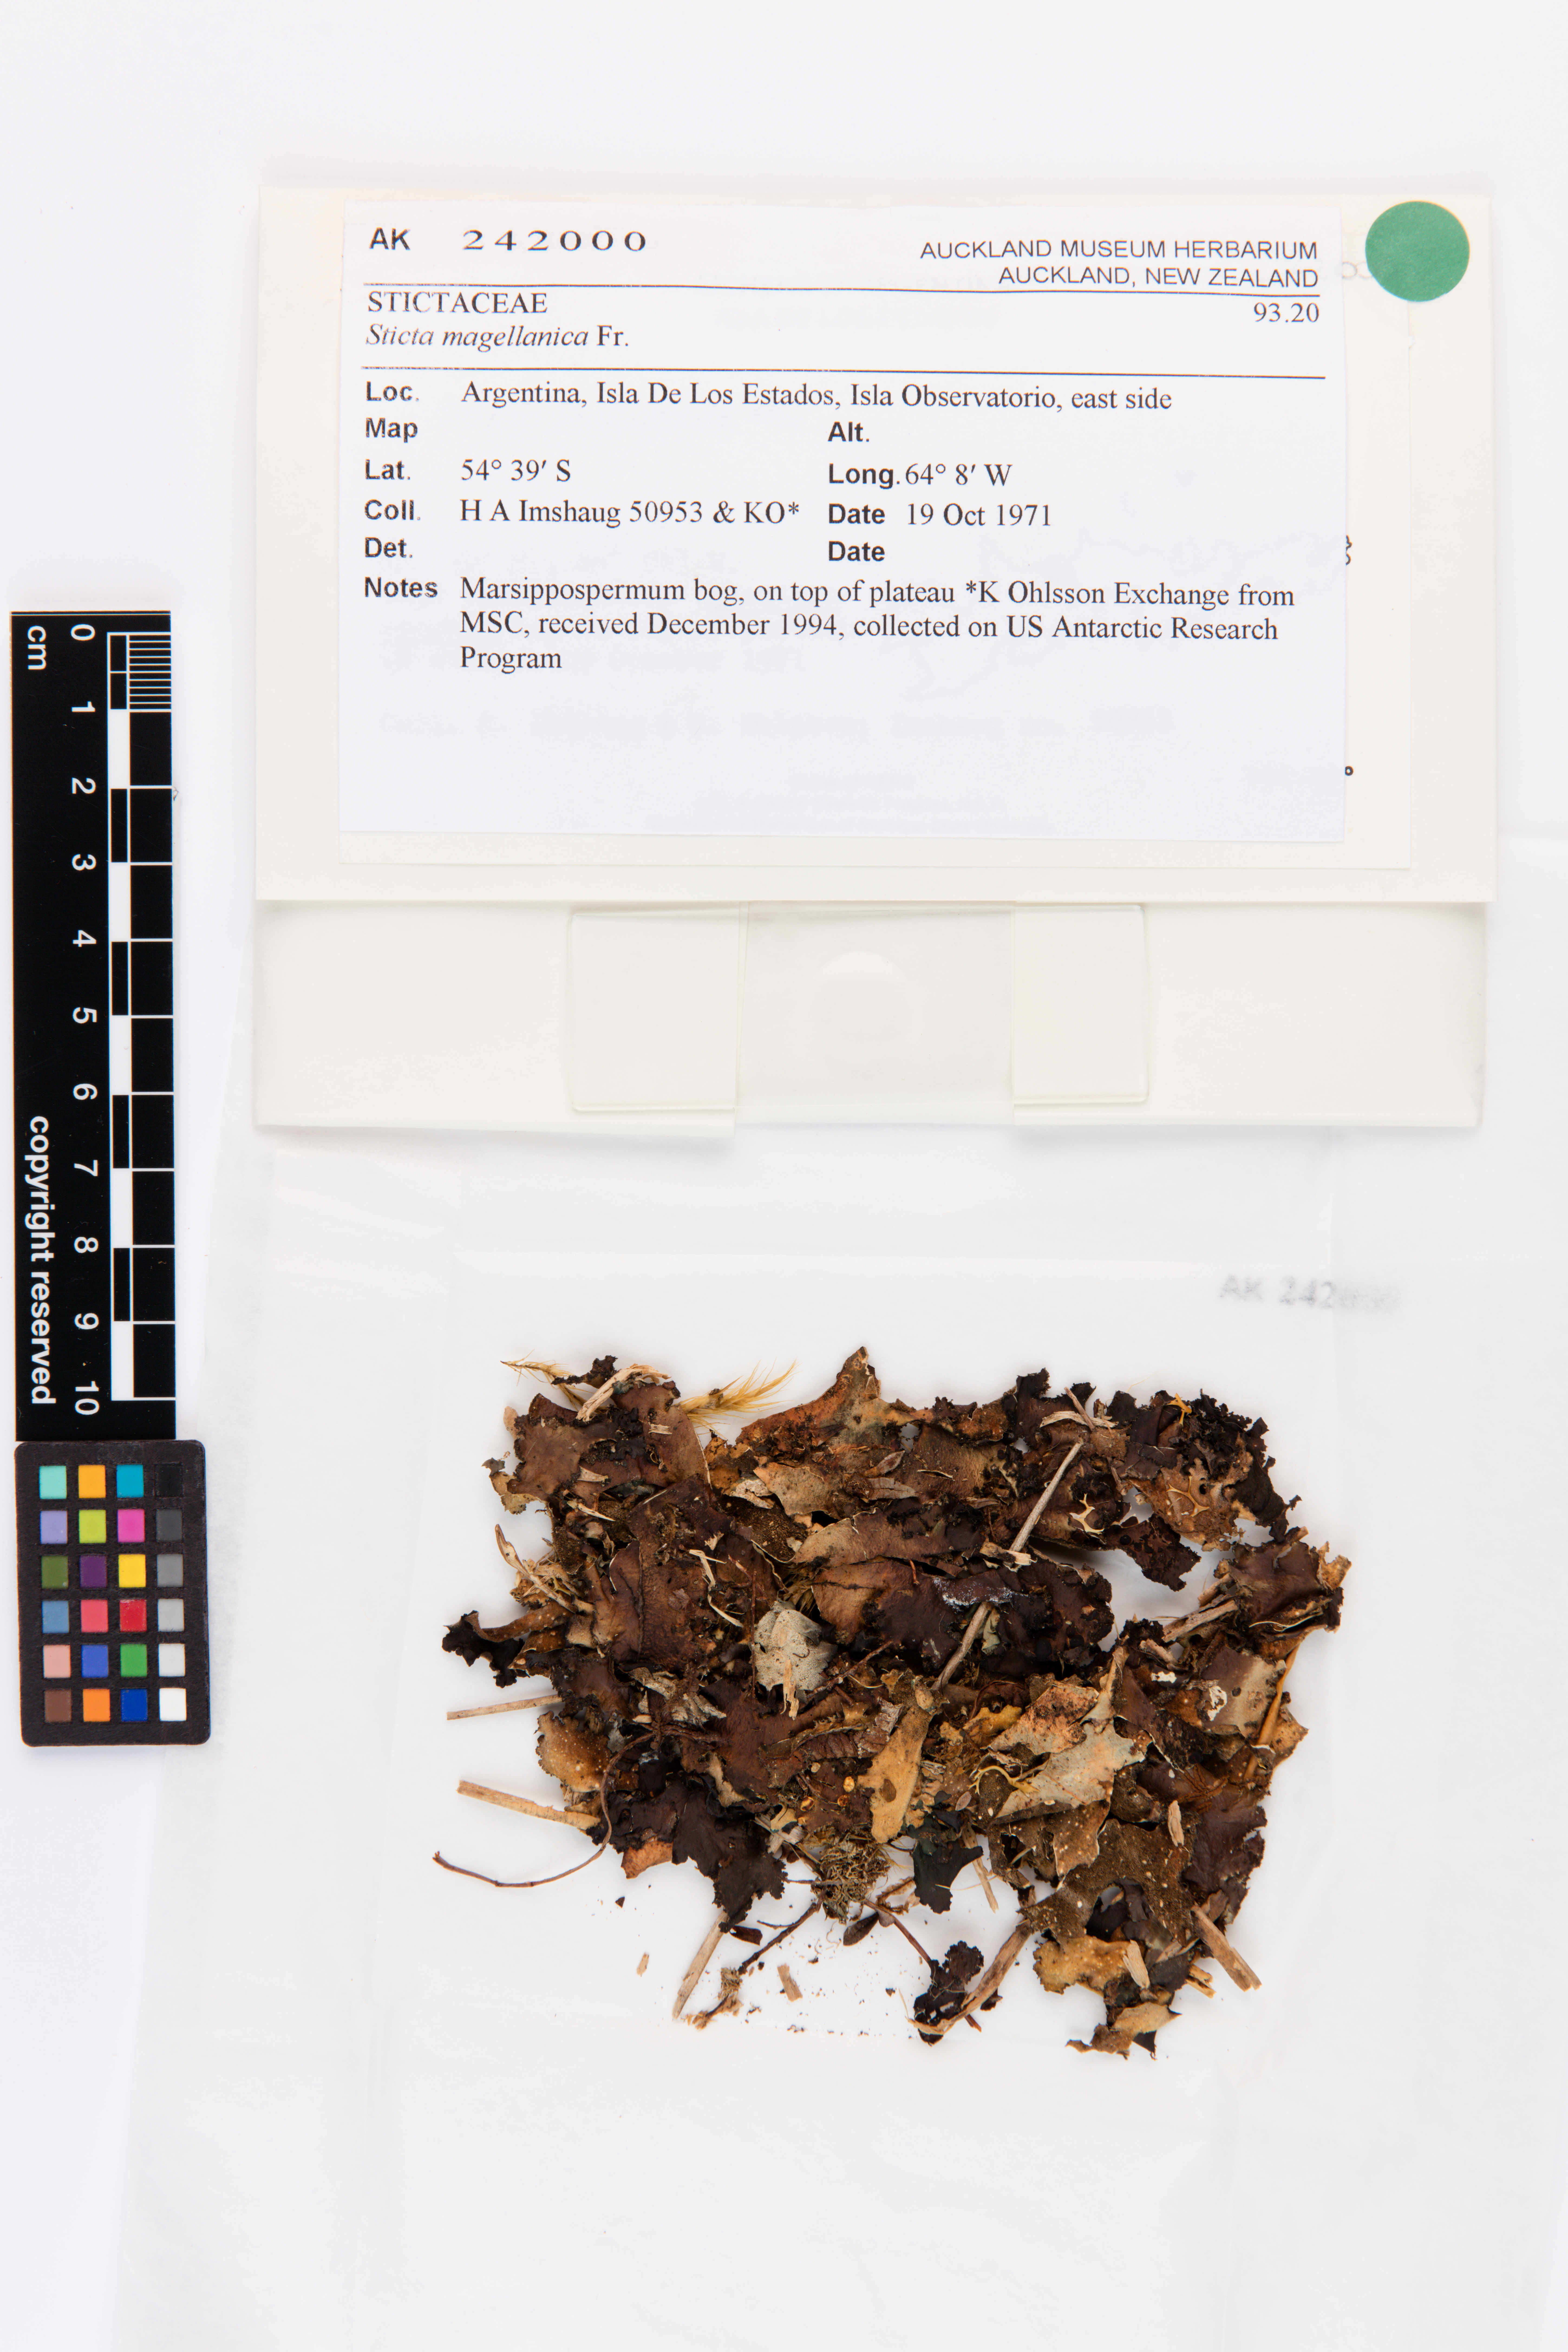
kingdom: Fungi
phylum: Ascomycota
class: Lecanoromycetes
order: Peltigerales
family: Lobariaceae
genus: Sticta
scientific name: Sticta
